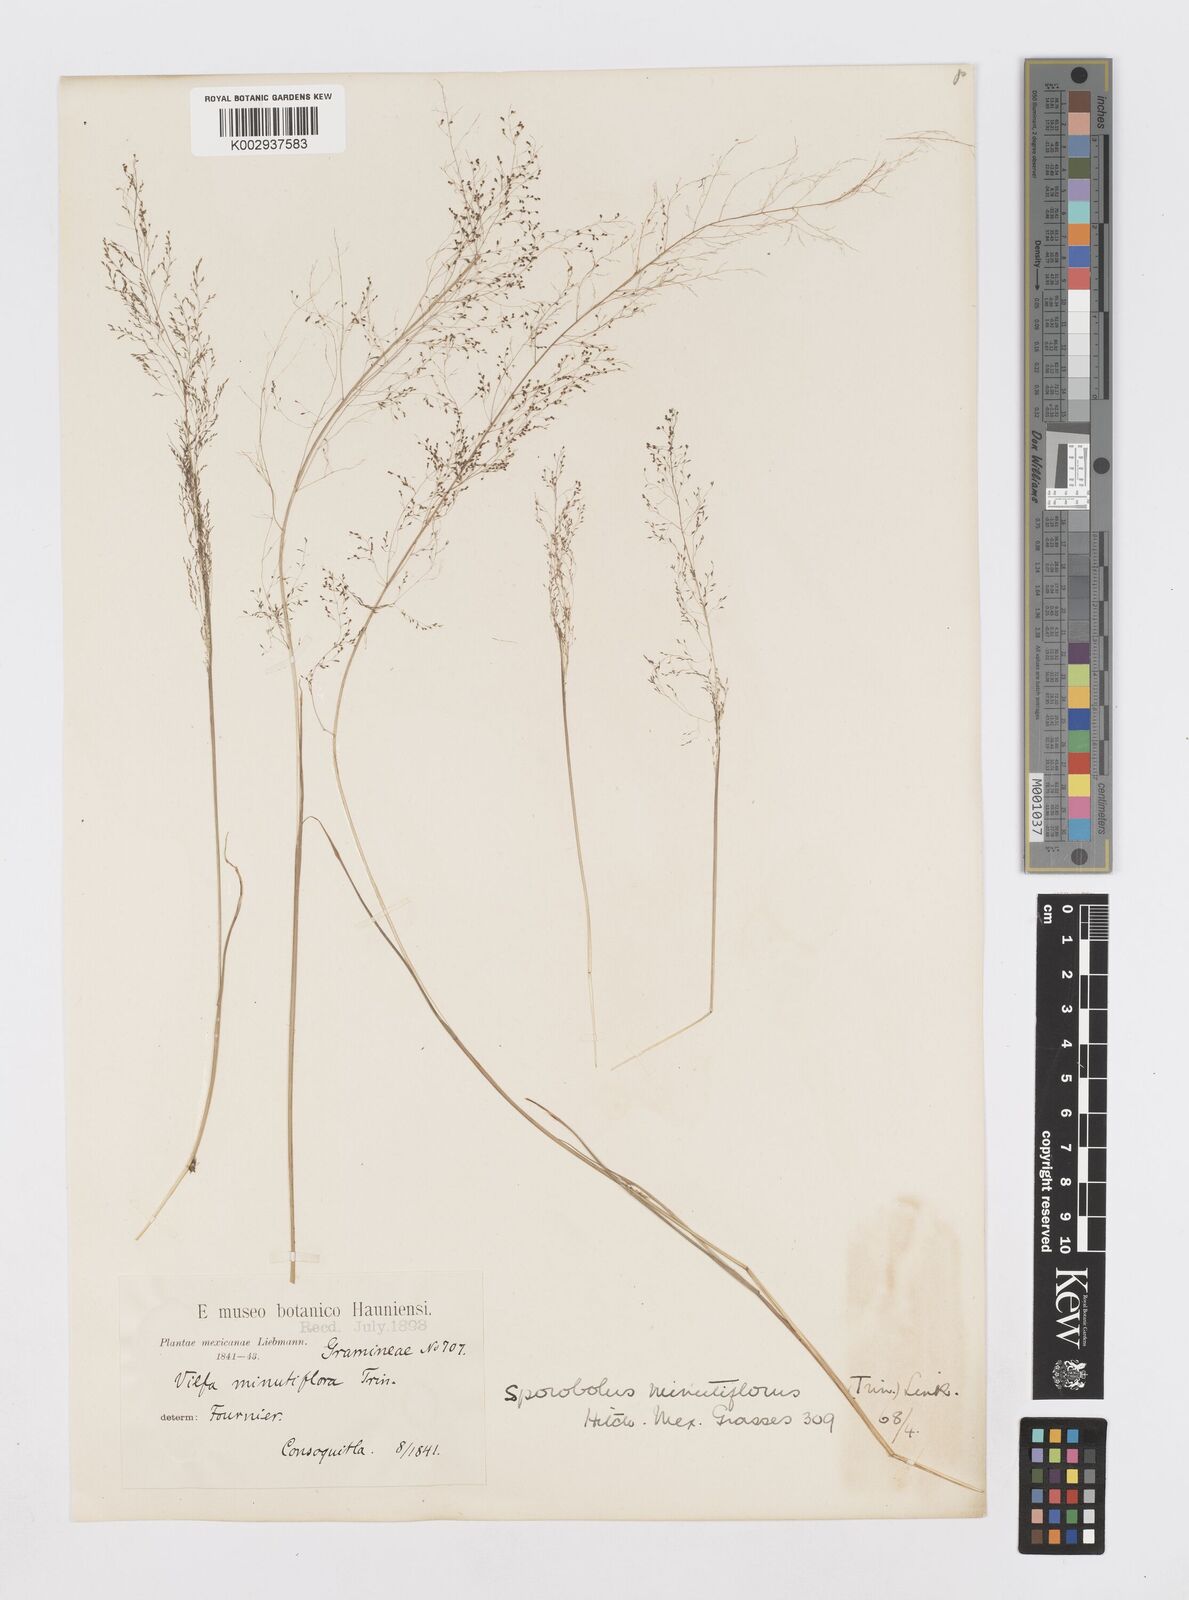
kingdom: Plantae
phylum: Tracheophyta
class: Liliopsida
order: Poales
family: Poaceae
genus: Sporobolus
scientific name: Sporobolus tenuissimus
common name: Tropical dropseed
